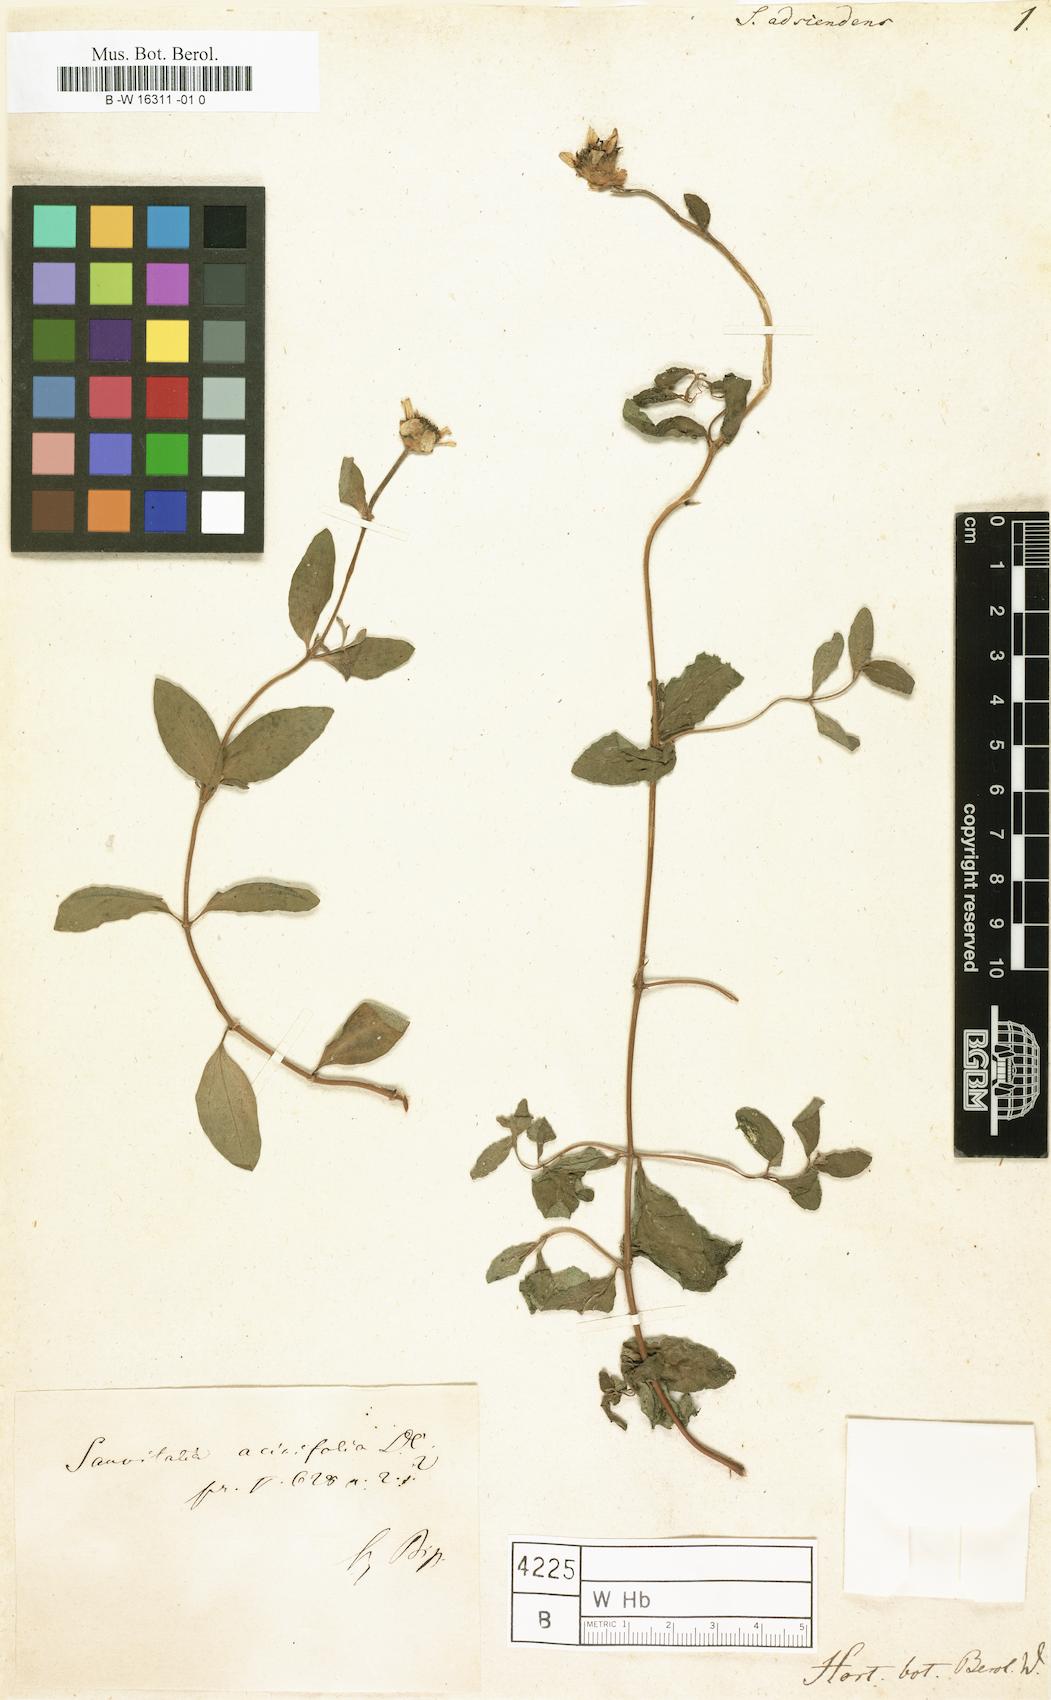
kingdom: Plantae
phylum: Tracheophyta
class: Magnoliopsida
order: Asterales
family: Asteraceae
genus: Sanvitalia
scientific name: Sanvitalia
